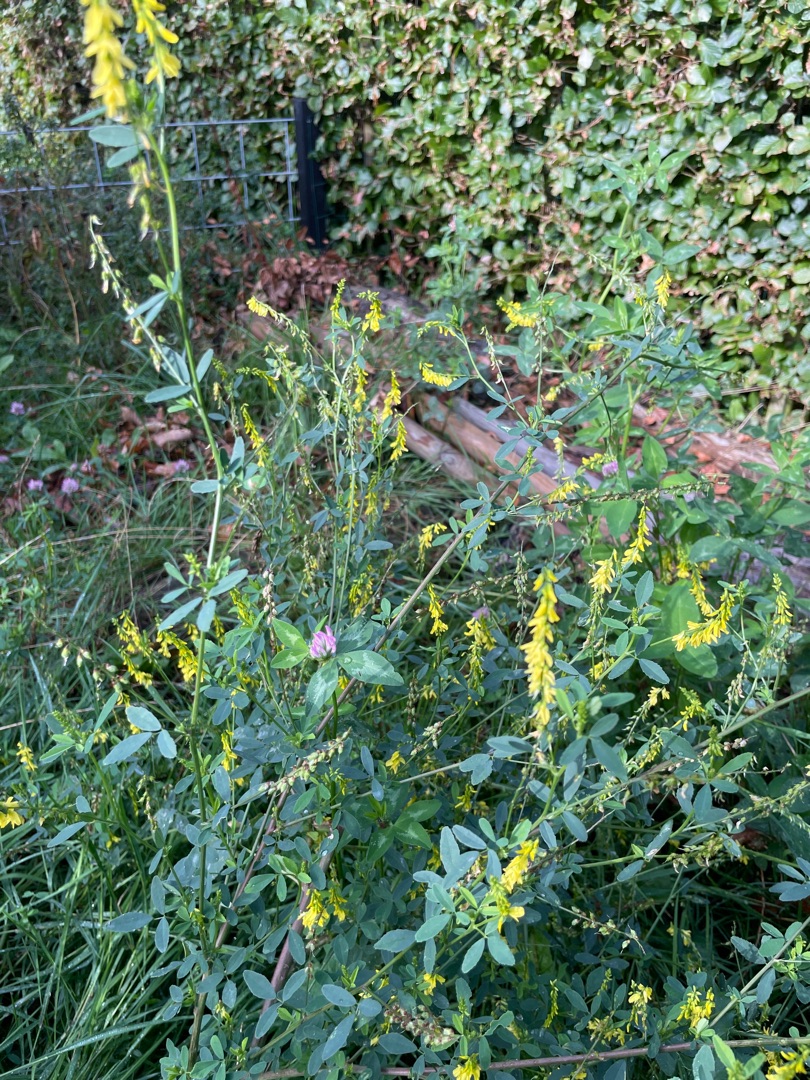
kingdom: Plantae
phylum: Tracheophyta
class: Magnoliopsida
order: Fabales
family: Fabaceae
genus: Melilotus
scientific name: Melilotus
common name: Stenkløverslægten
